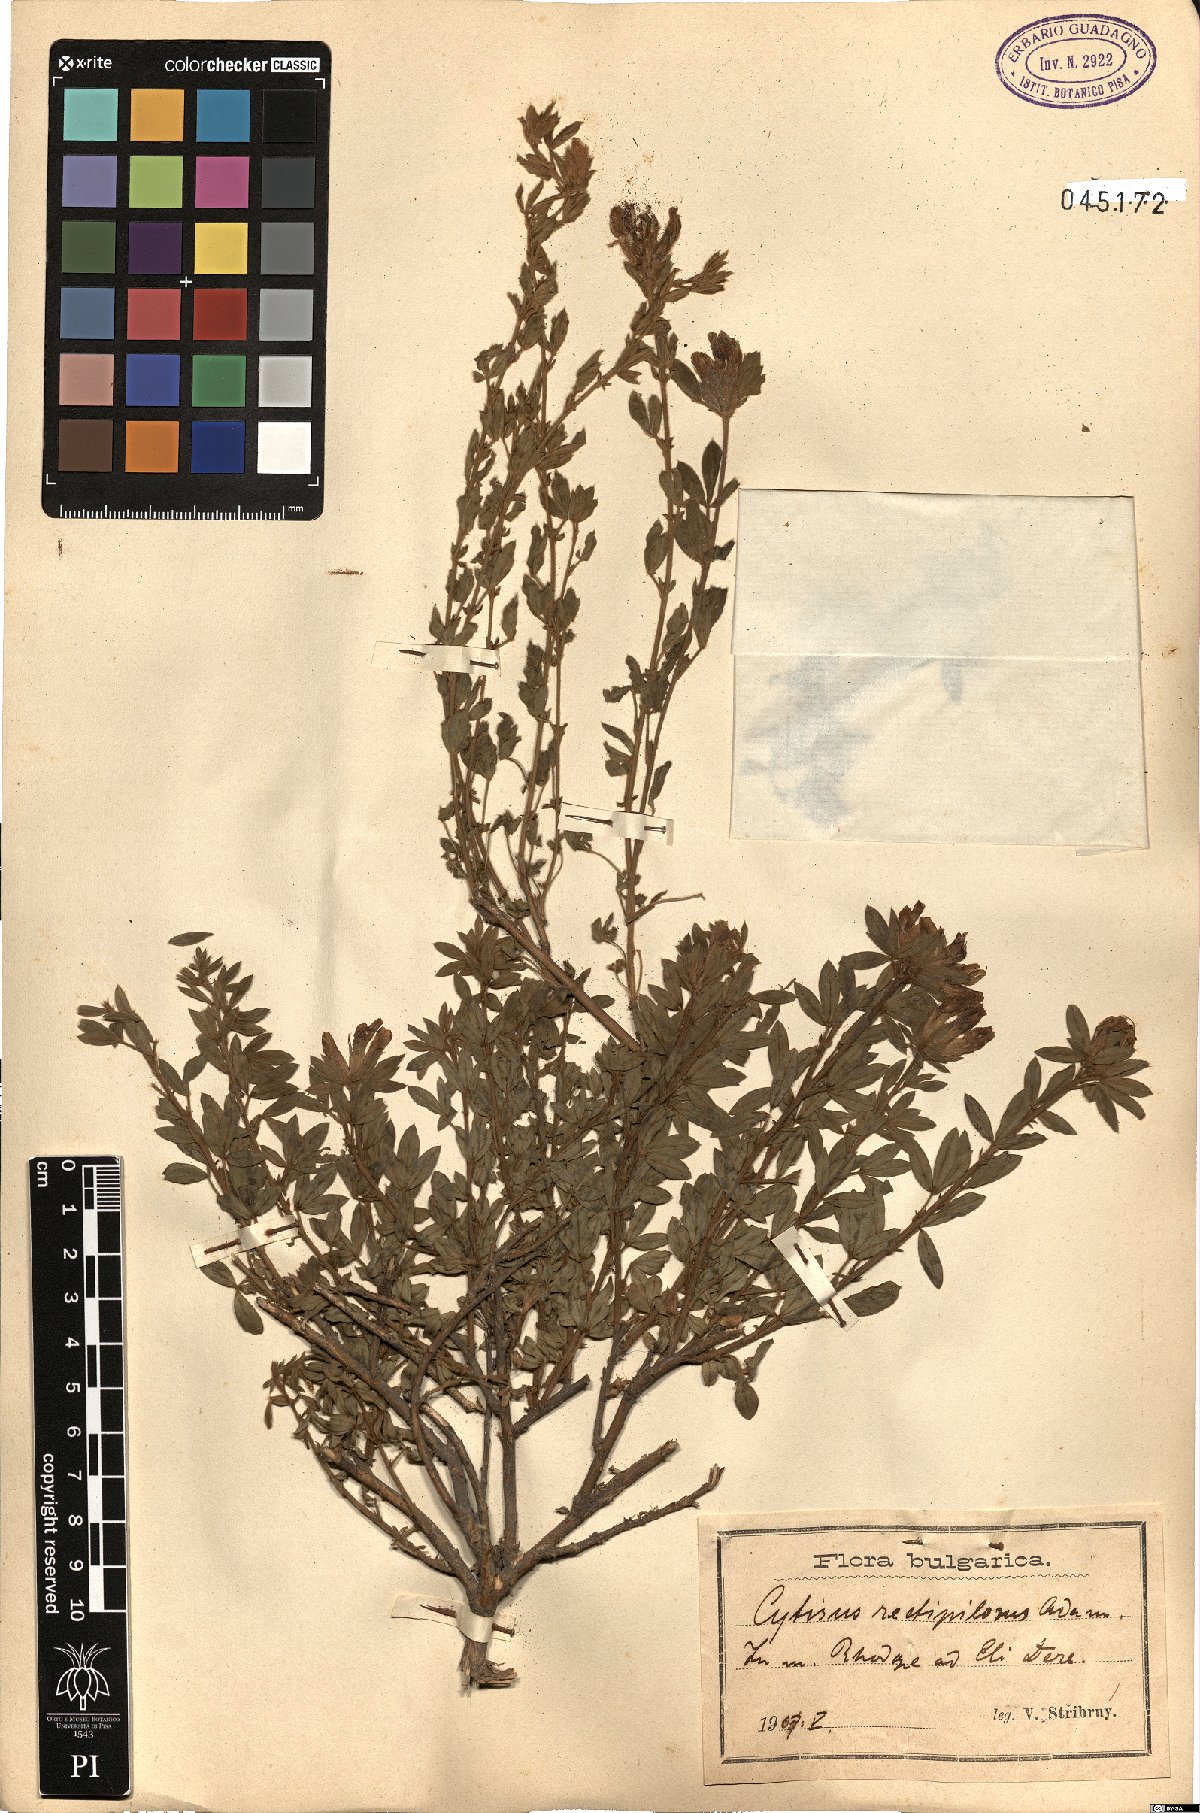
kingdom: Plantae
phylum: Tracheophyta
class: Magnoliopsida
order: Fabales
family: Fabaceae
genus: Cytisus
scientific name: Cytisus agnipilus
